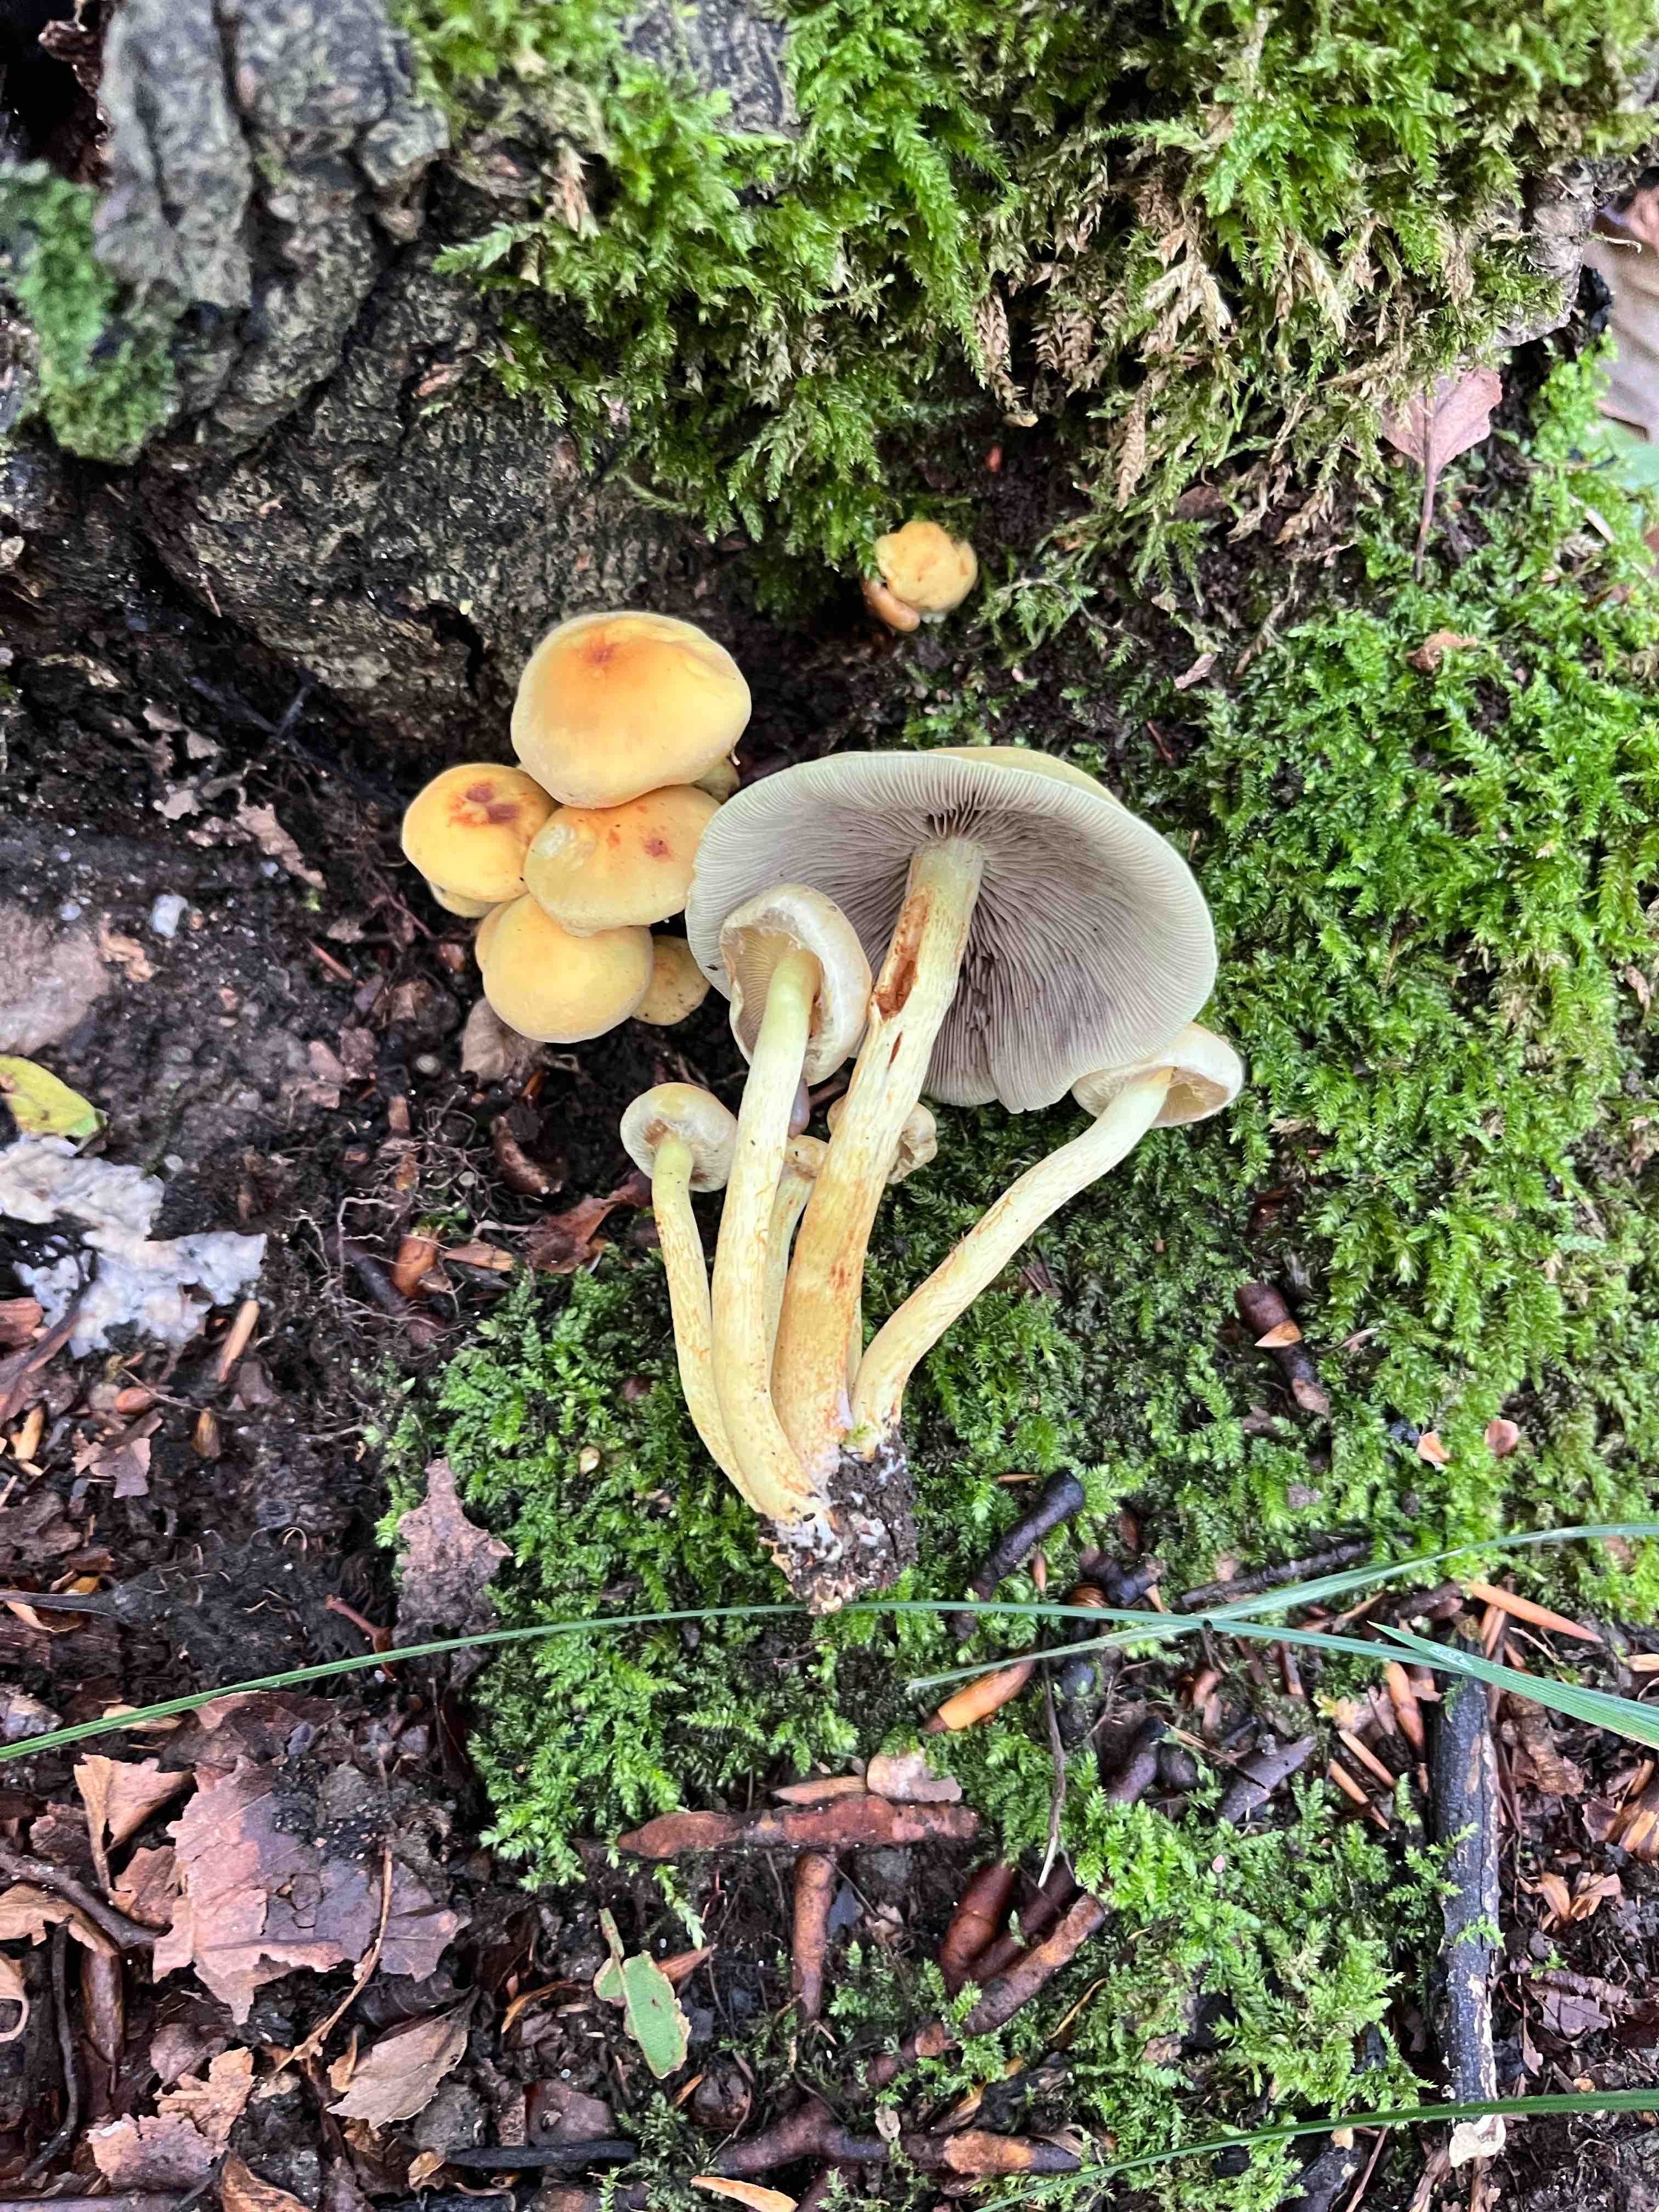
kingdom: Fungi
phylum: Basidiomycota
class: Agaricomycetes
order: Agaricales
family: Strophariaceae
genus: Hypholoma
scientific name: Hypholoma fasciculare
